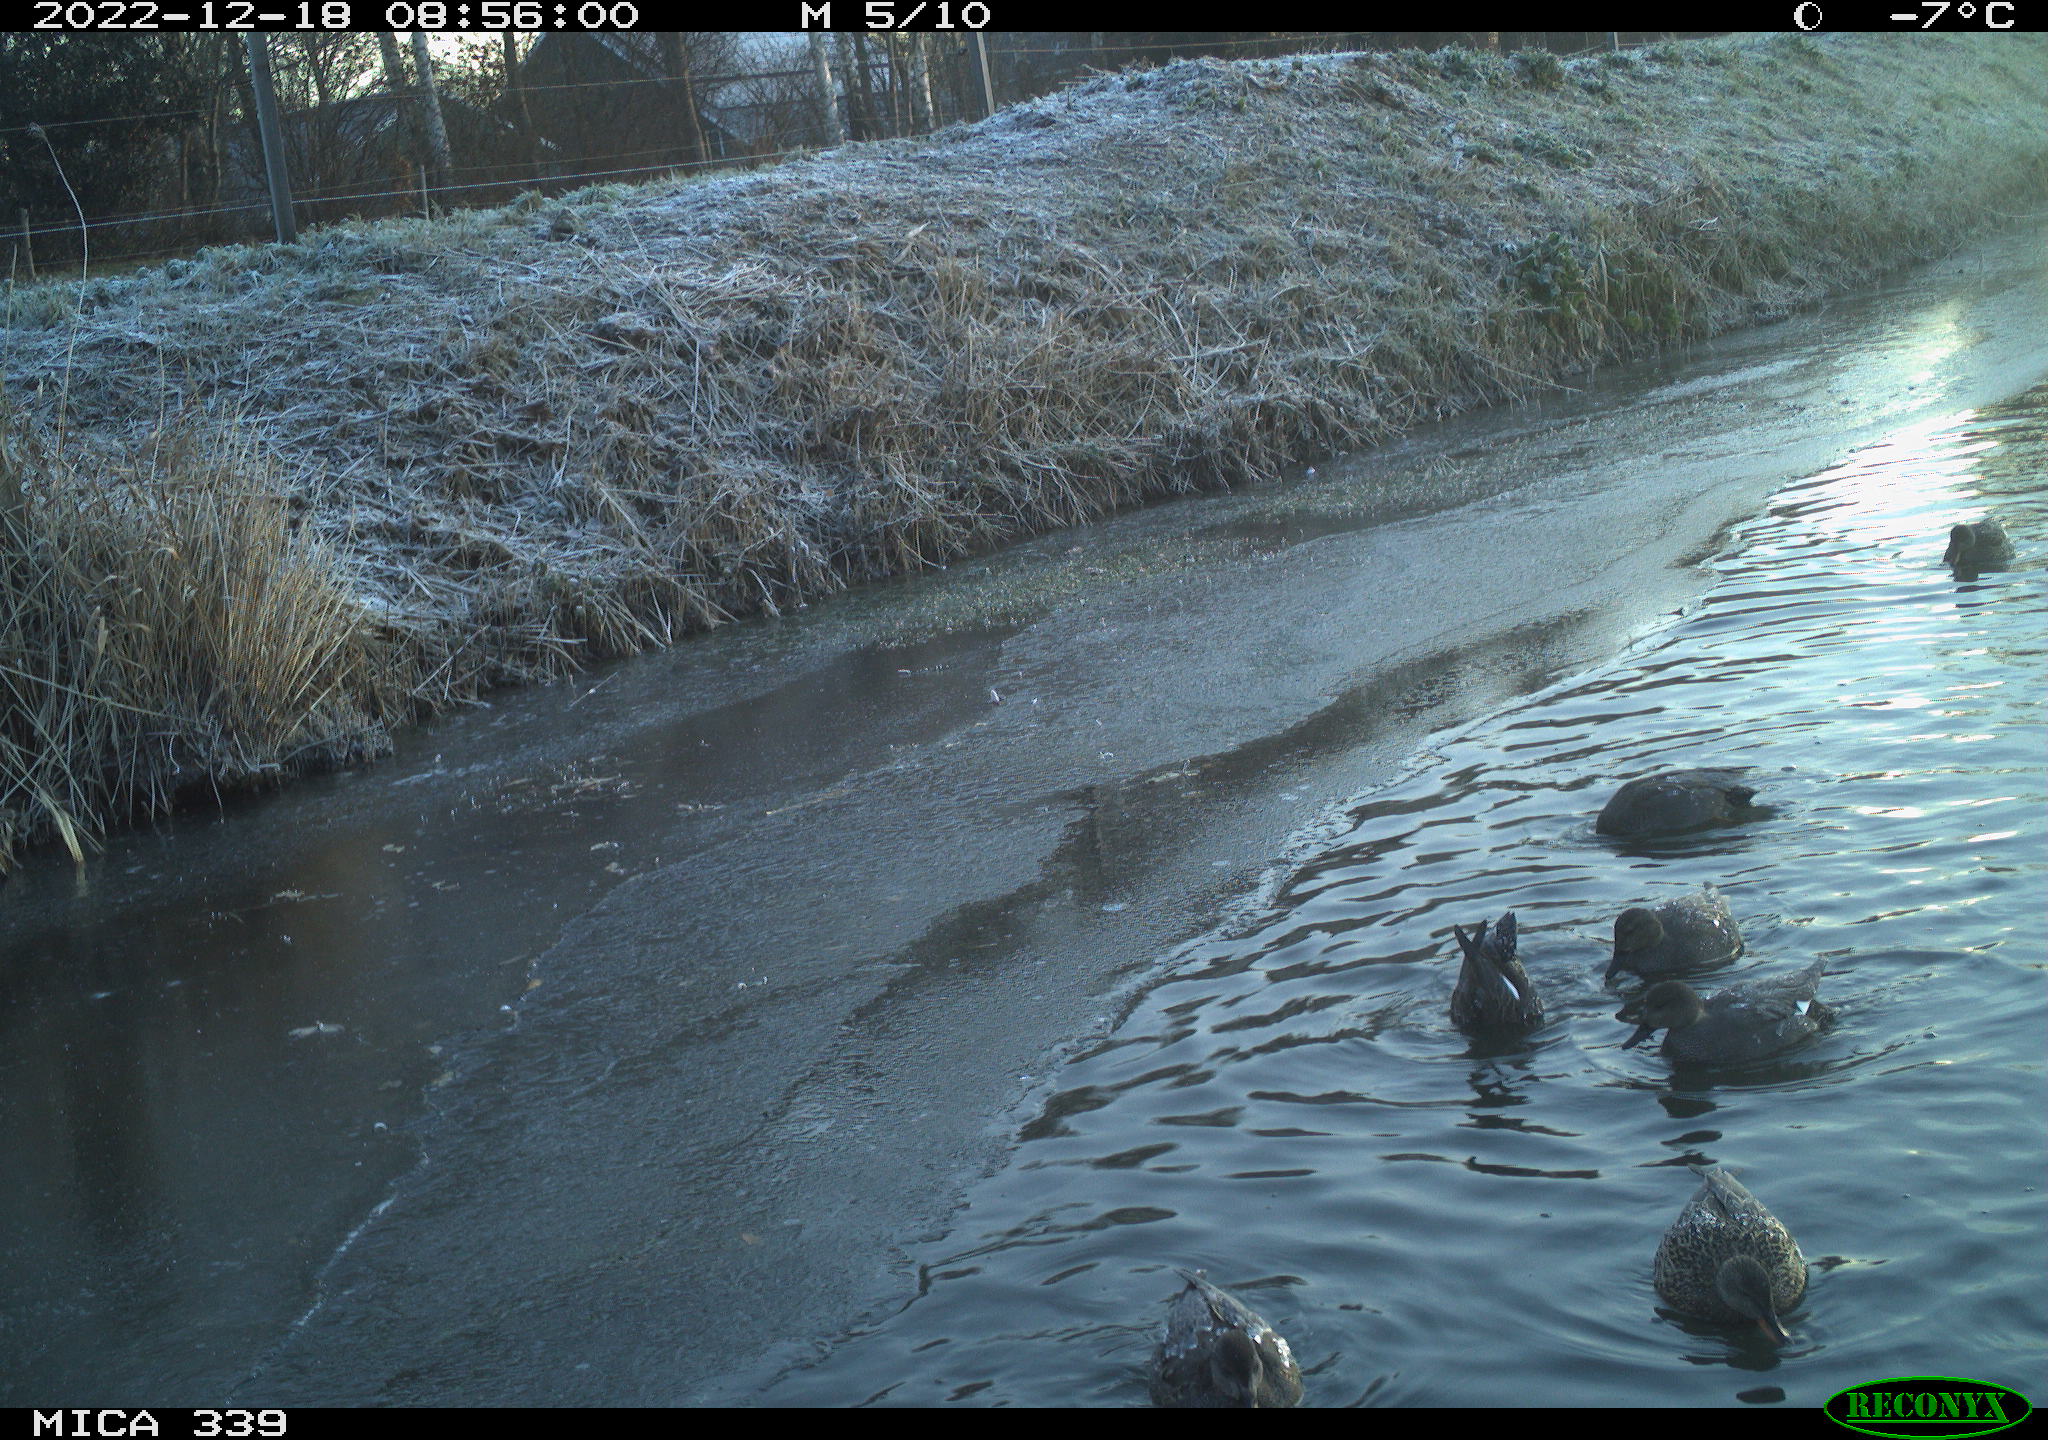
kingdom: Animalia
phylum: Chordata
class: Aves
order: Anseriformes
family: Anatidae
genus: Anas
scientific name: Anas
